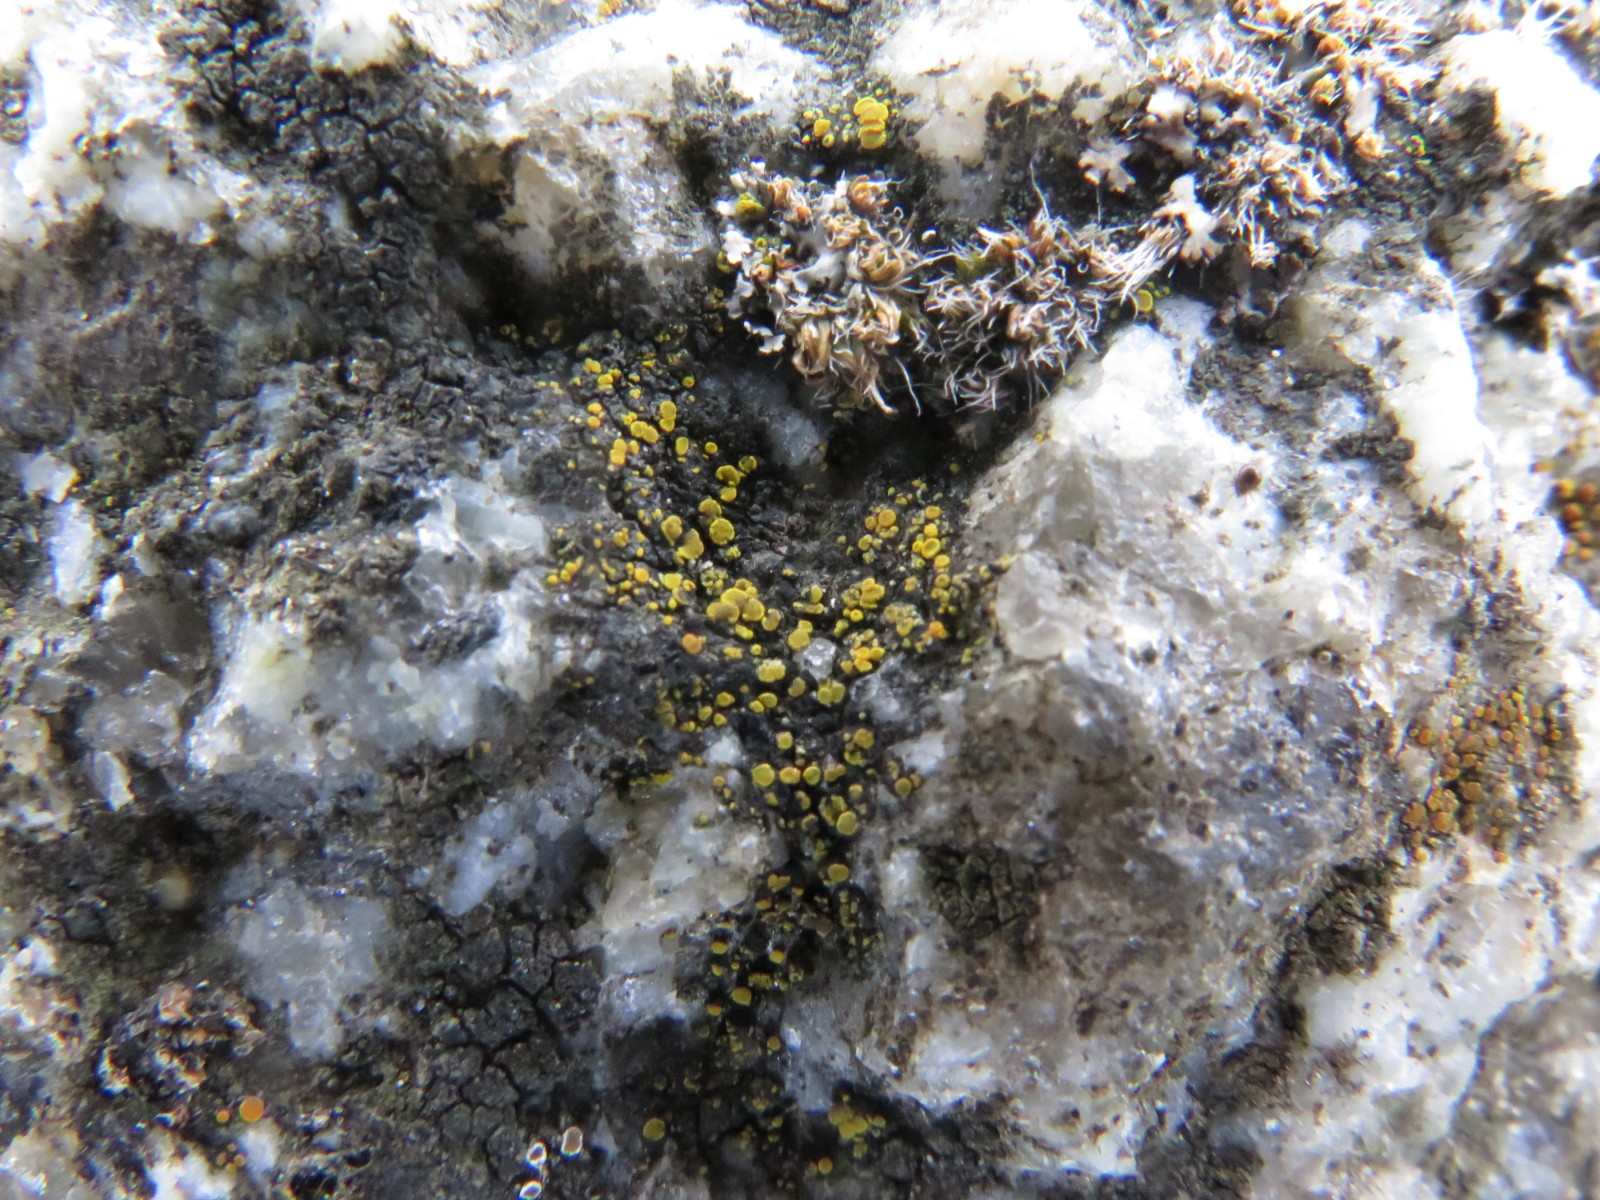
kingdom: Fungi
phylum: Ascomycota
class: Candelariomycetes
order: Candelariales
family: Candelariaceae
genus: Candelariella
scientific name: Candelariella aurella
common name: liden æggeblommelav
